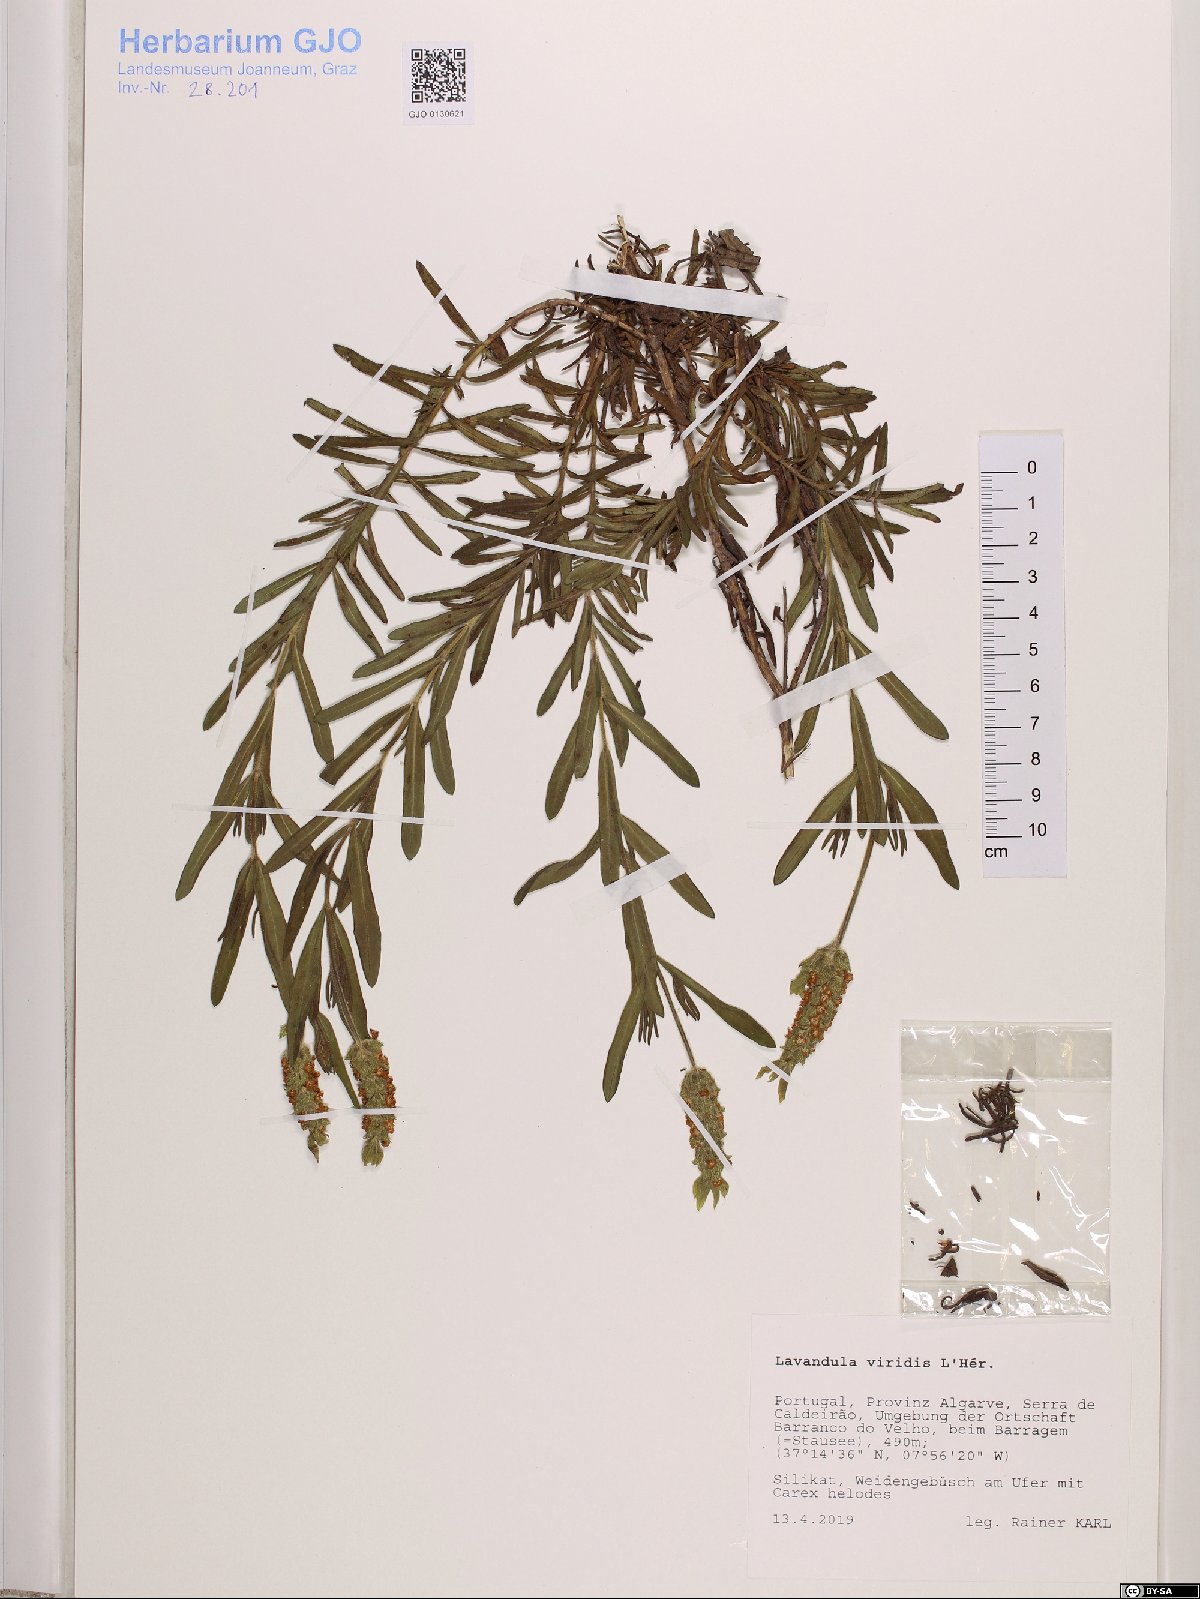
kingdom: Plantae
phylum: Tracheophyta
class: Magnoliopsida
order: Lamiales
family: Lamiaceae
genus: Lavandula
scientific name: Lavandula viridis
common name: Green spanish lavender
